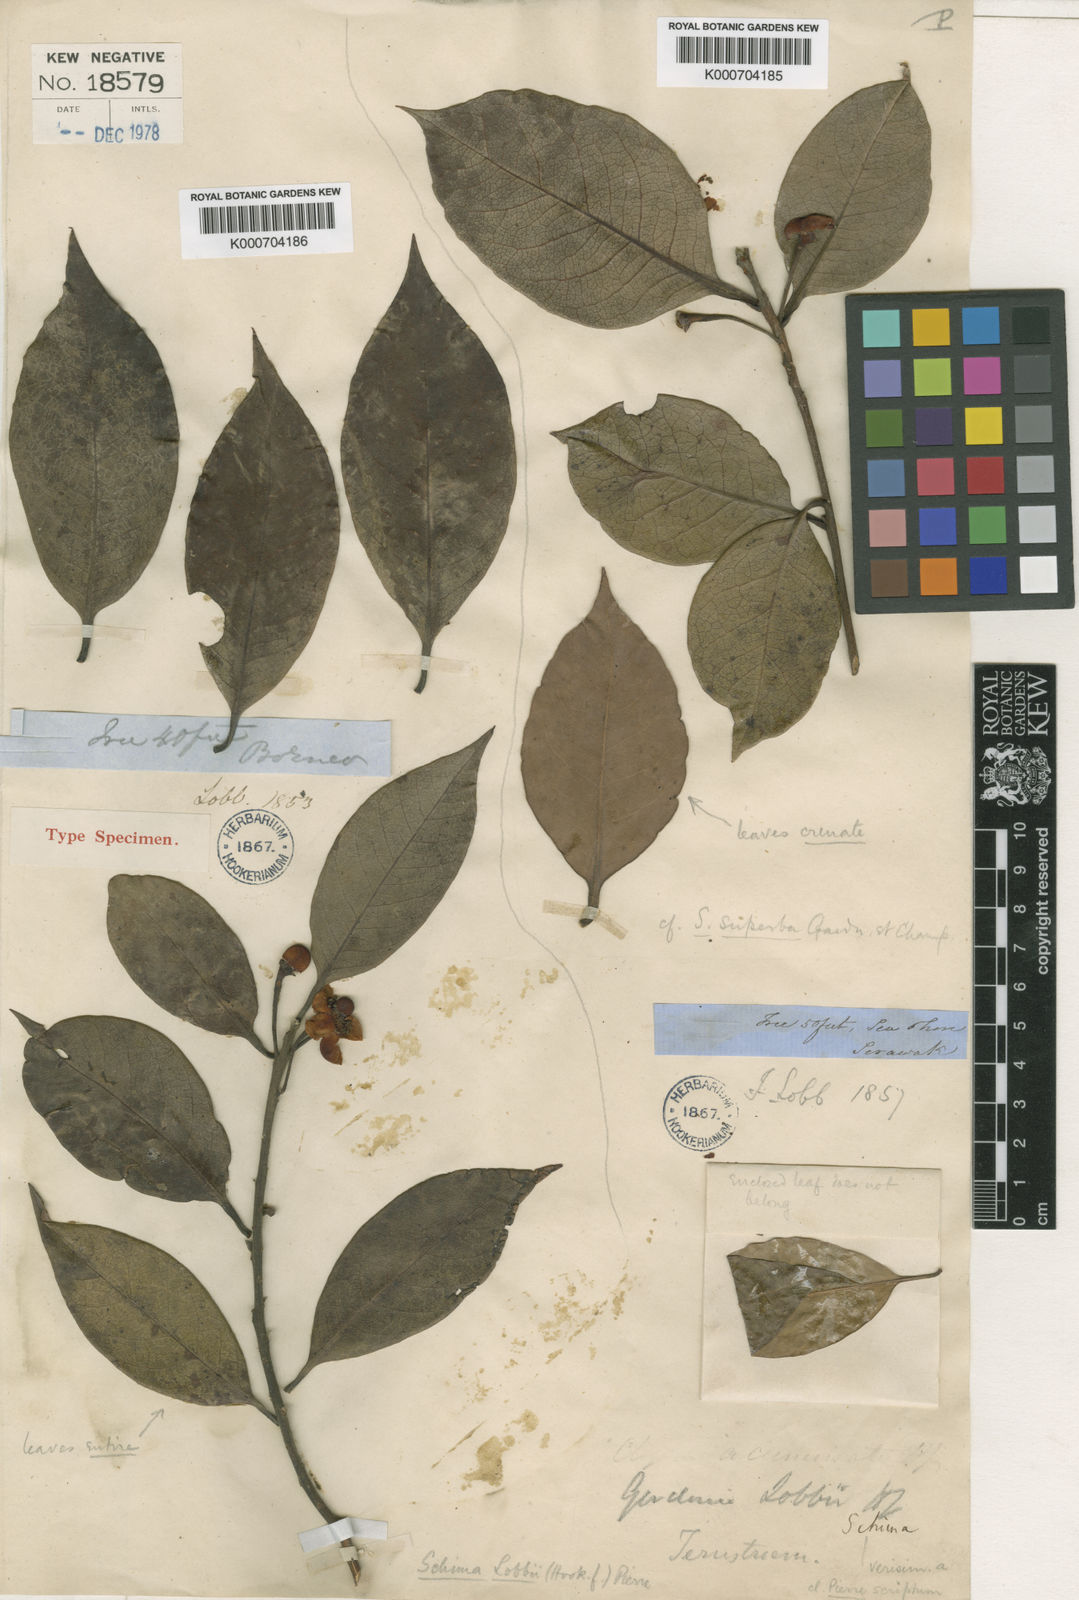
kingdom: Plantae
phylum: Tracheophyta
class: Magnoliopsida
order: Ericales
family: Theaceae
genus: Schima
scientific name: Schima lobbii
